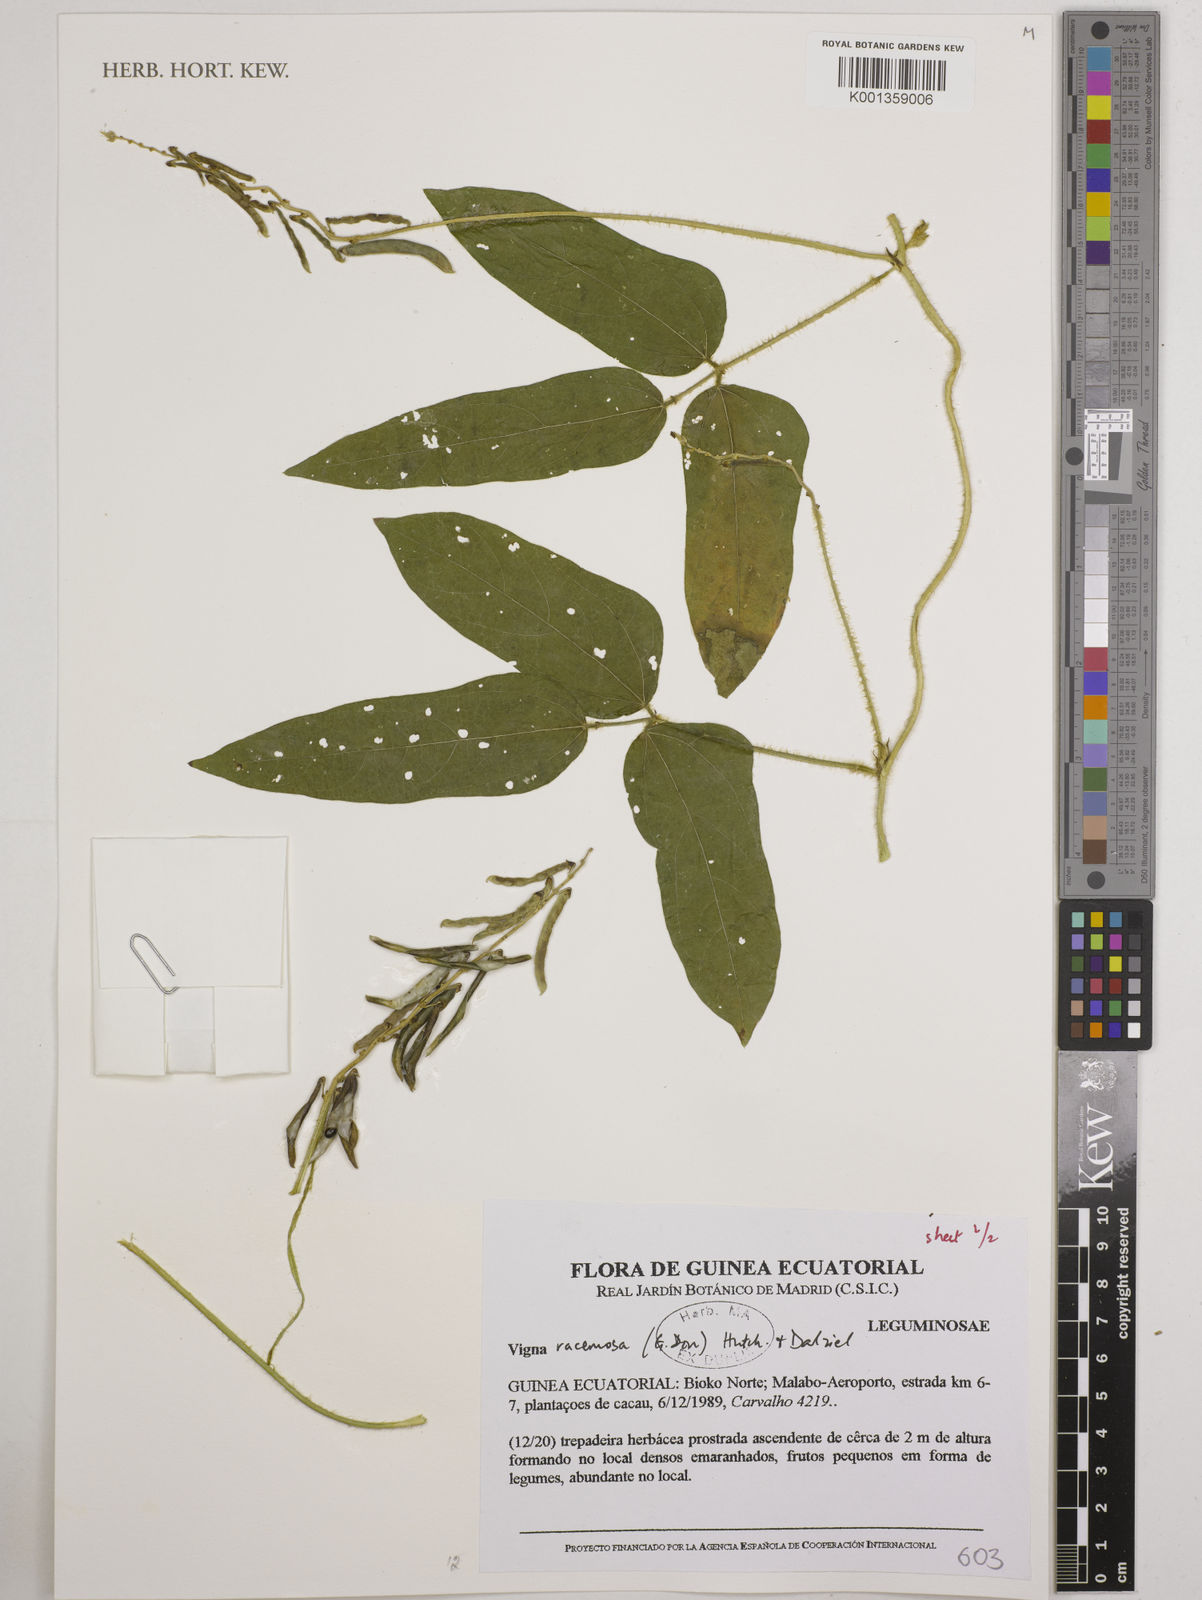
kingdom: Plantae
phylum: Tracheophyta
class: Magnoliopsida
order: Fabales
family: Fabaceae
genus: Vigna
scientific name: Vigna racemosa
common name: Beans not eaten
